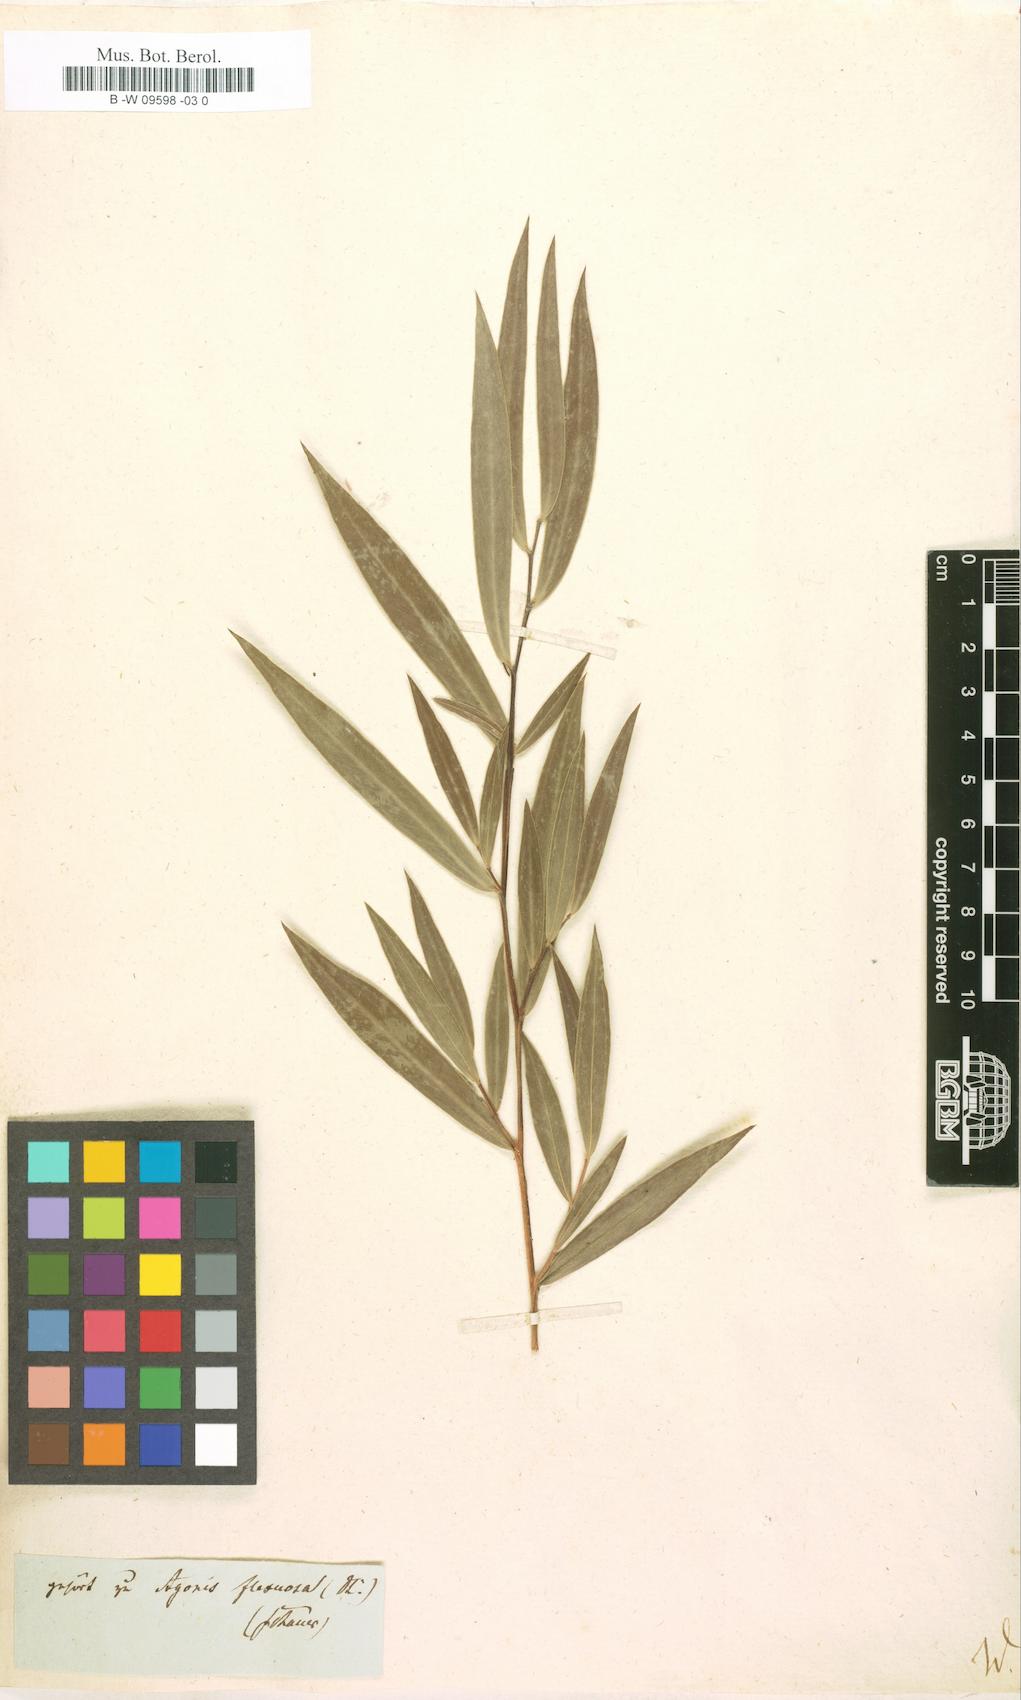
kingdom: Plantae
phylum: Tracheophyta
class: Magnoliopsida
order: Myrtales
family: Myrtaceae
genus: Eucalyptus
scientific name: Eucalyptus amygdalina
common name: Black peppermint
